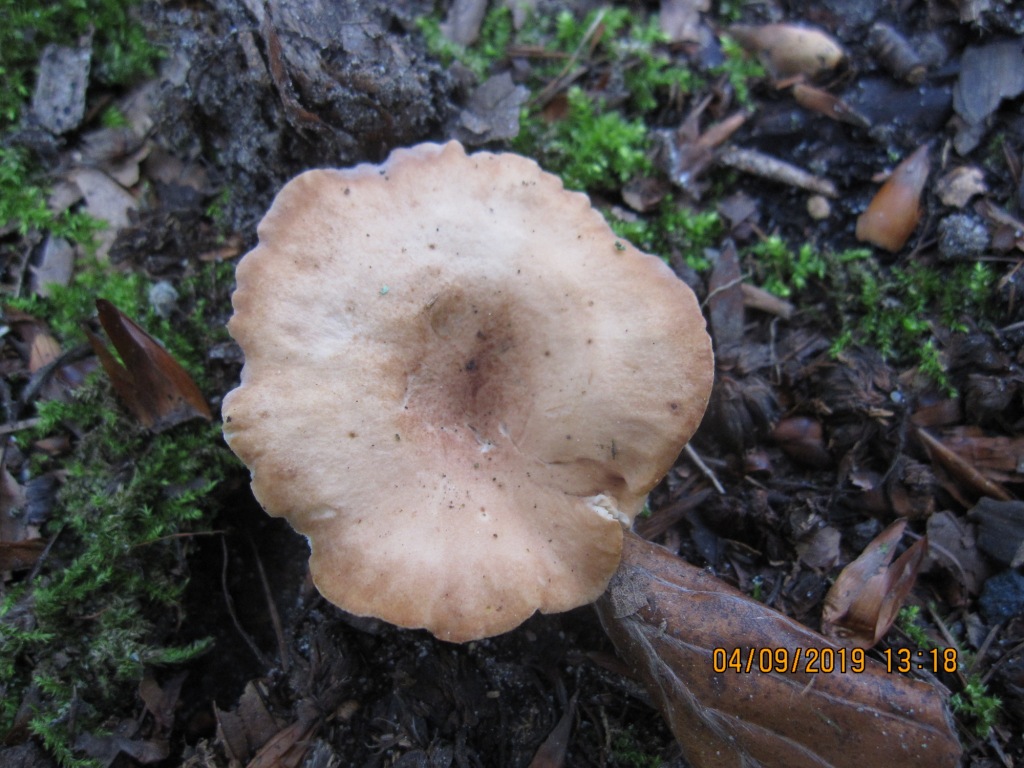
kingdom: Fungi
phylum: Basidiomycota
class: Agaricomycetes
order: Agaricales
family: Tricholomataceae
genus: Infundibulicybe
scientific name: Infundibulicybe gibba
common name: almindelig tragthat
